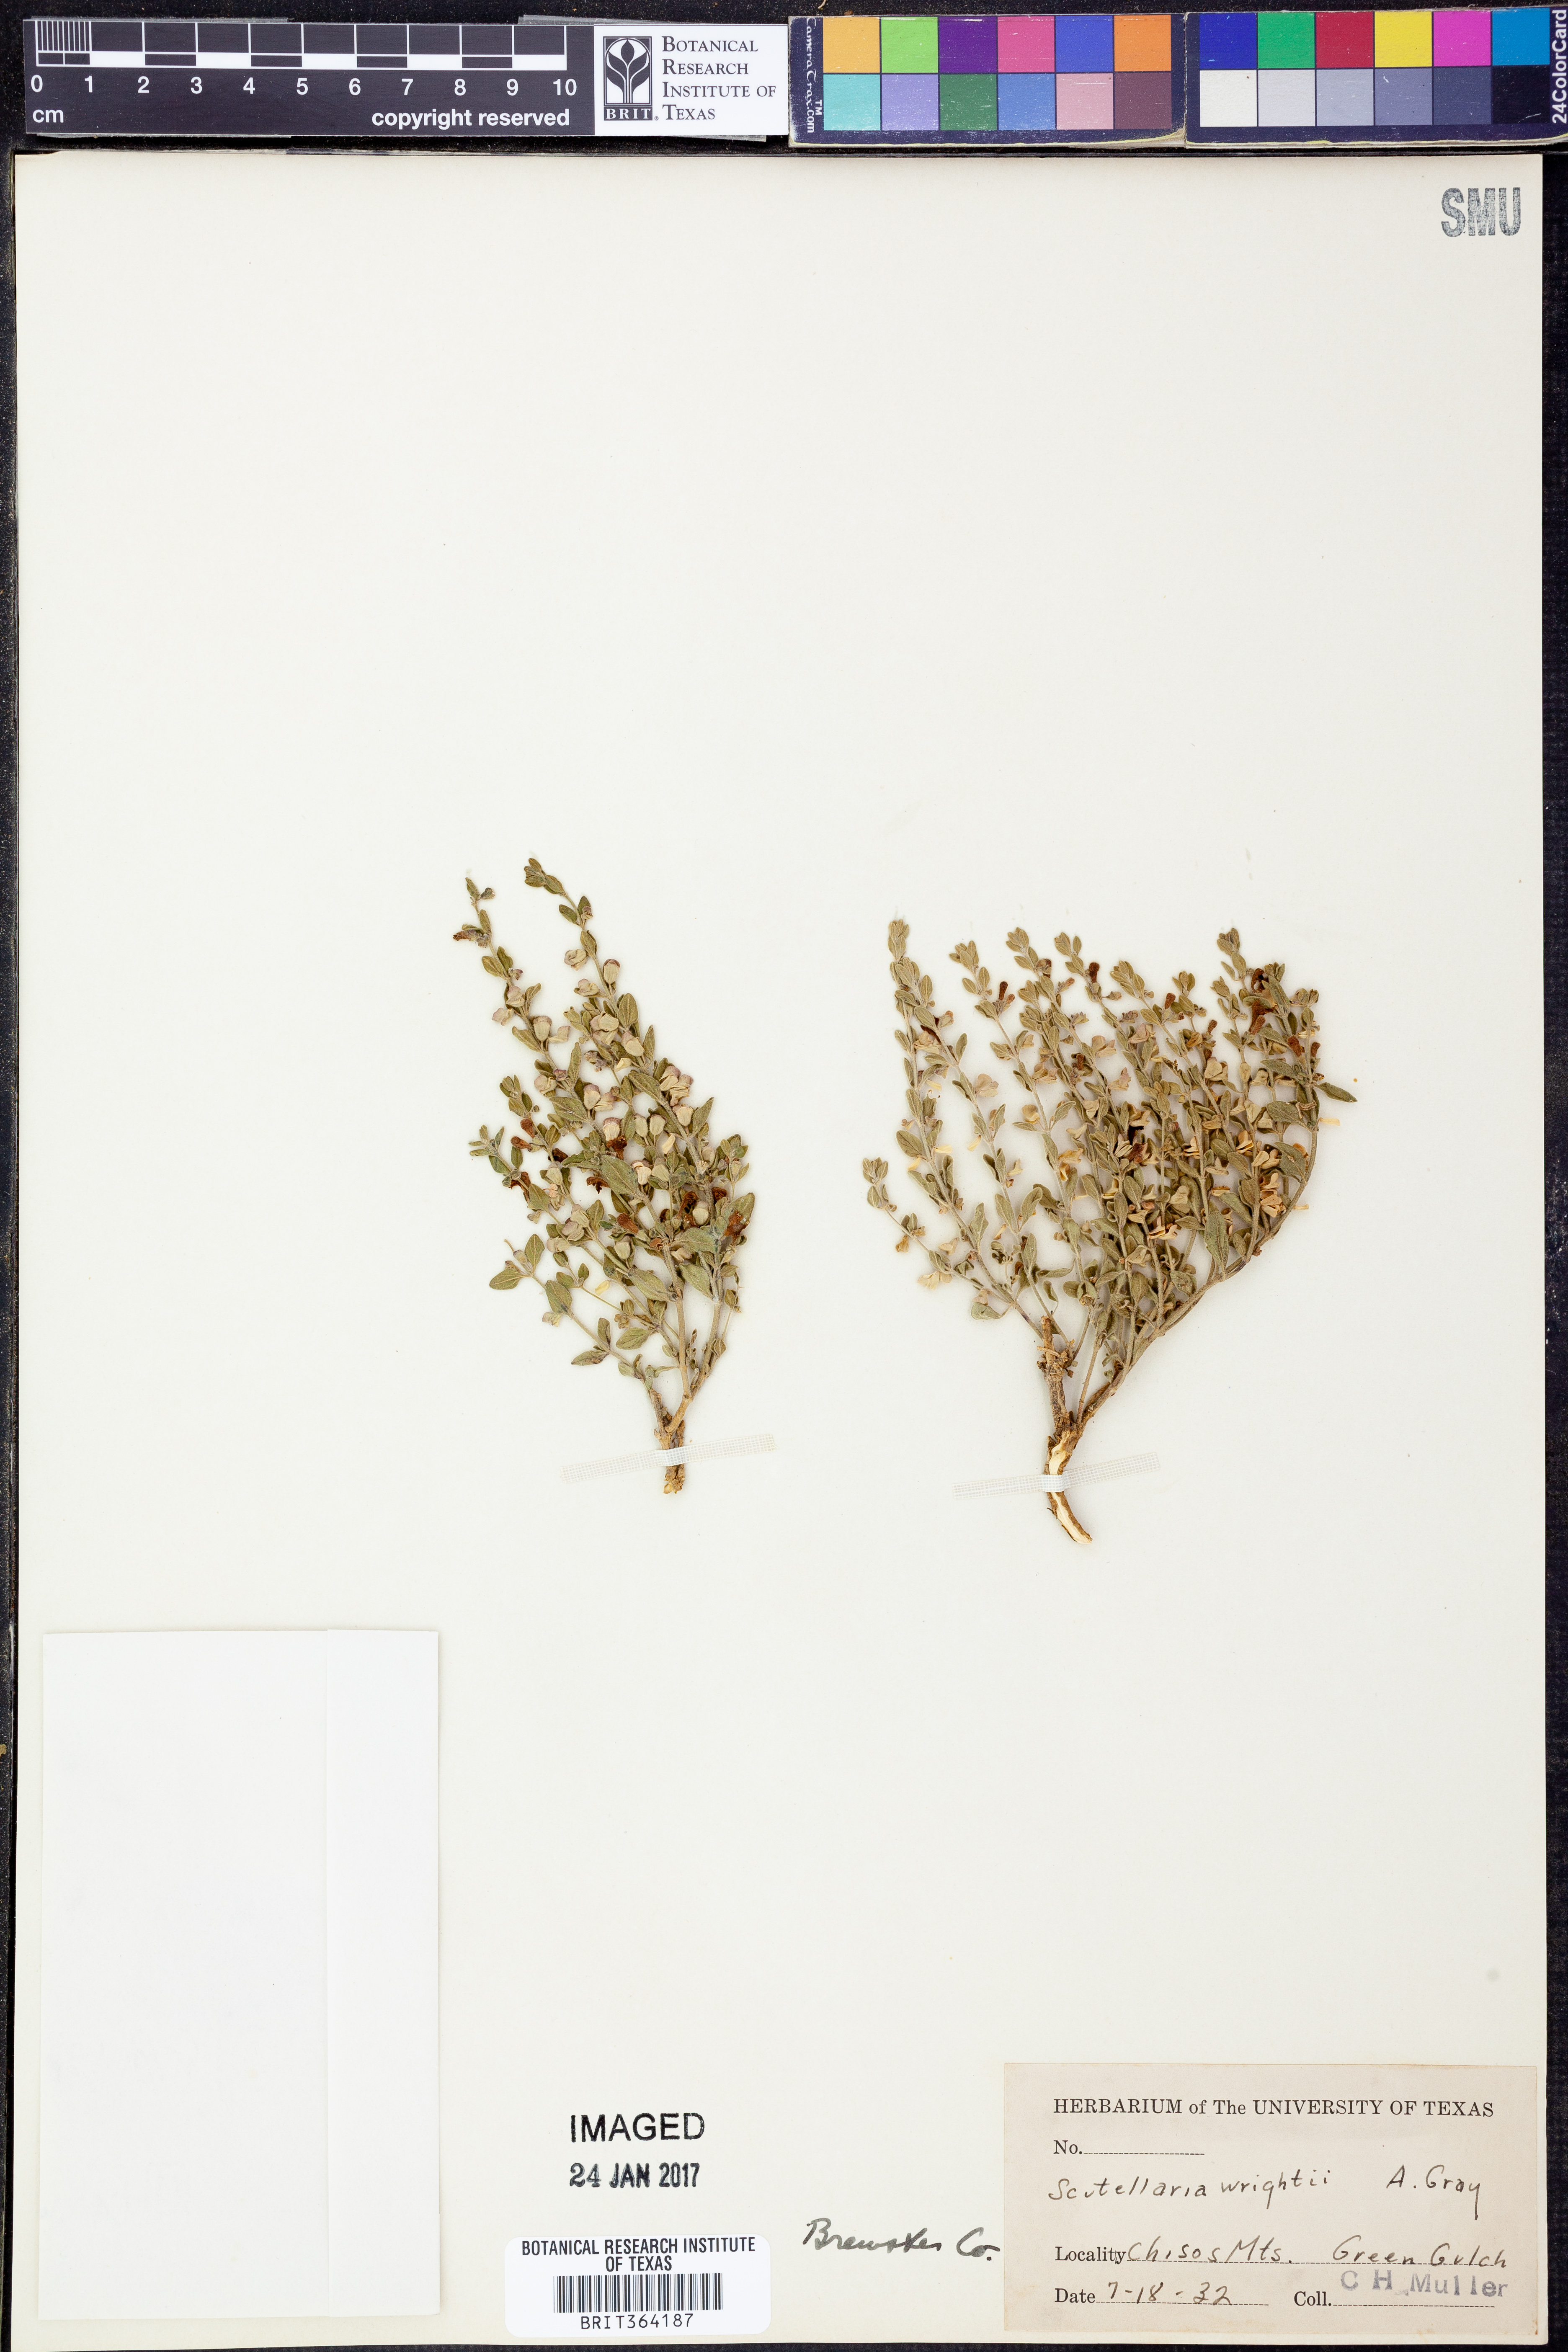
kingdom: Plantae
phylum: Tracheophyta
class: Magnoliopsida
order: Lamiales
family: Lamiaceae
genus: Scutellaria
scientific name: Scutellaria wrightii
